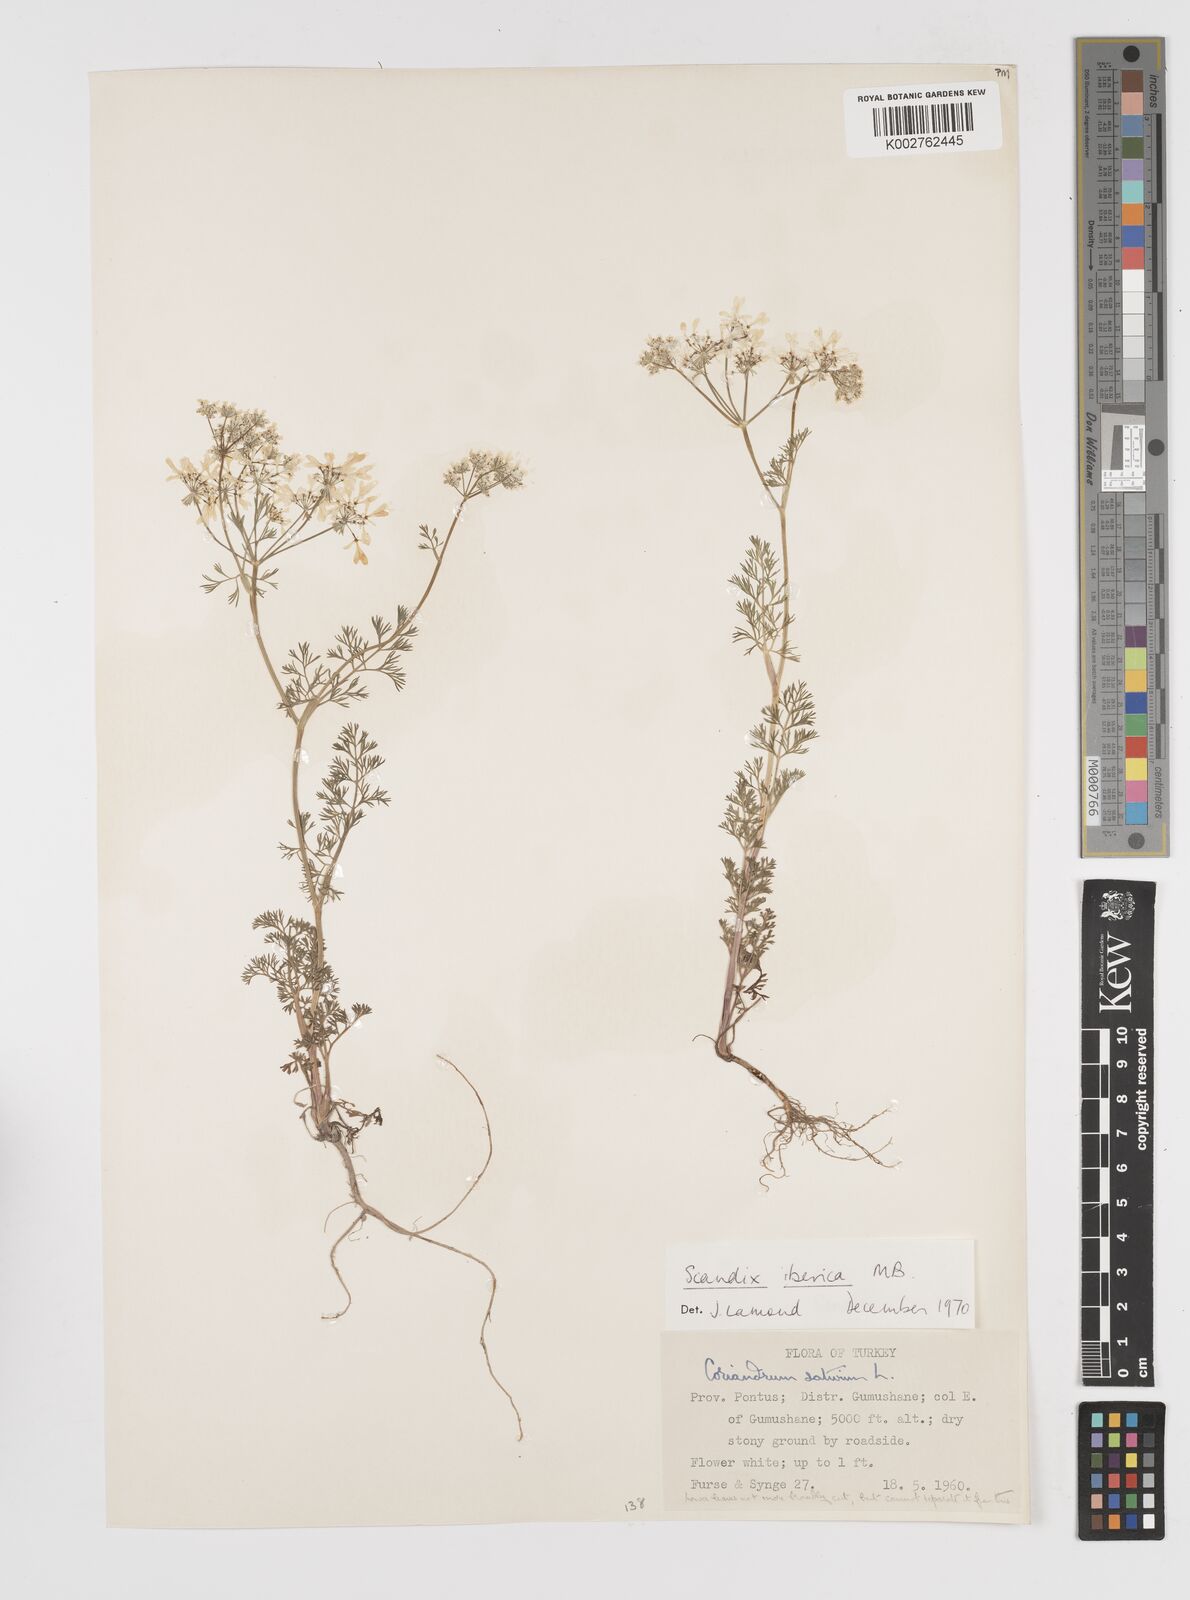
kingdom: Plantae
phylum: Tracheophyta
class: Magnoliopsida
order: Apiales
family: Apiaceae
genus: Scandix
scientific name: Scandix iberica
